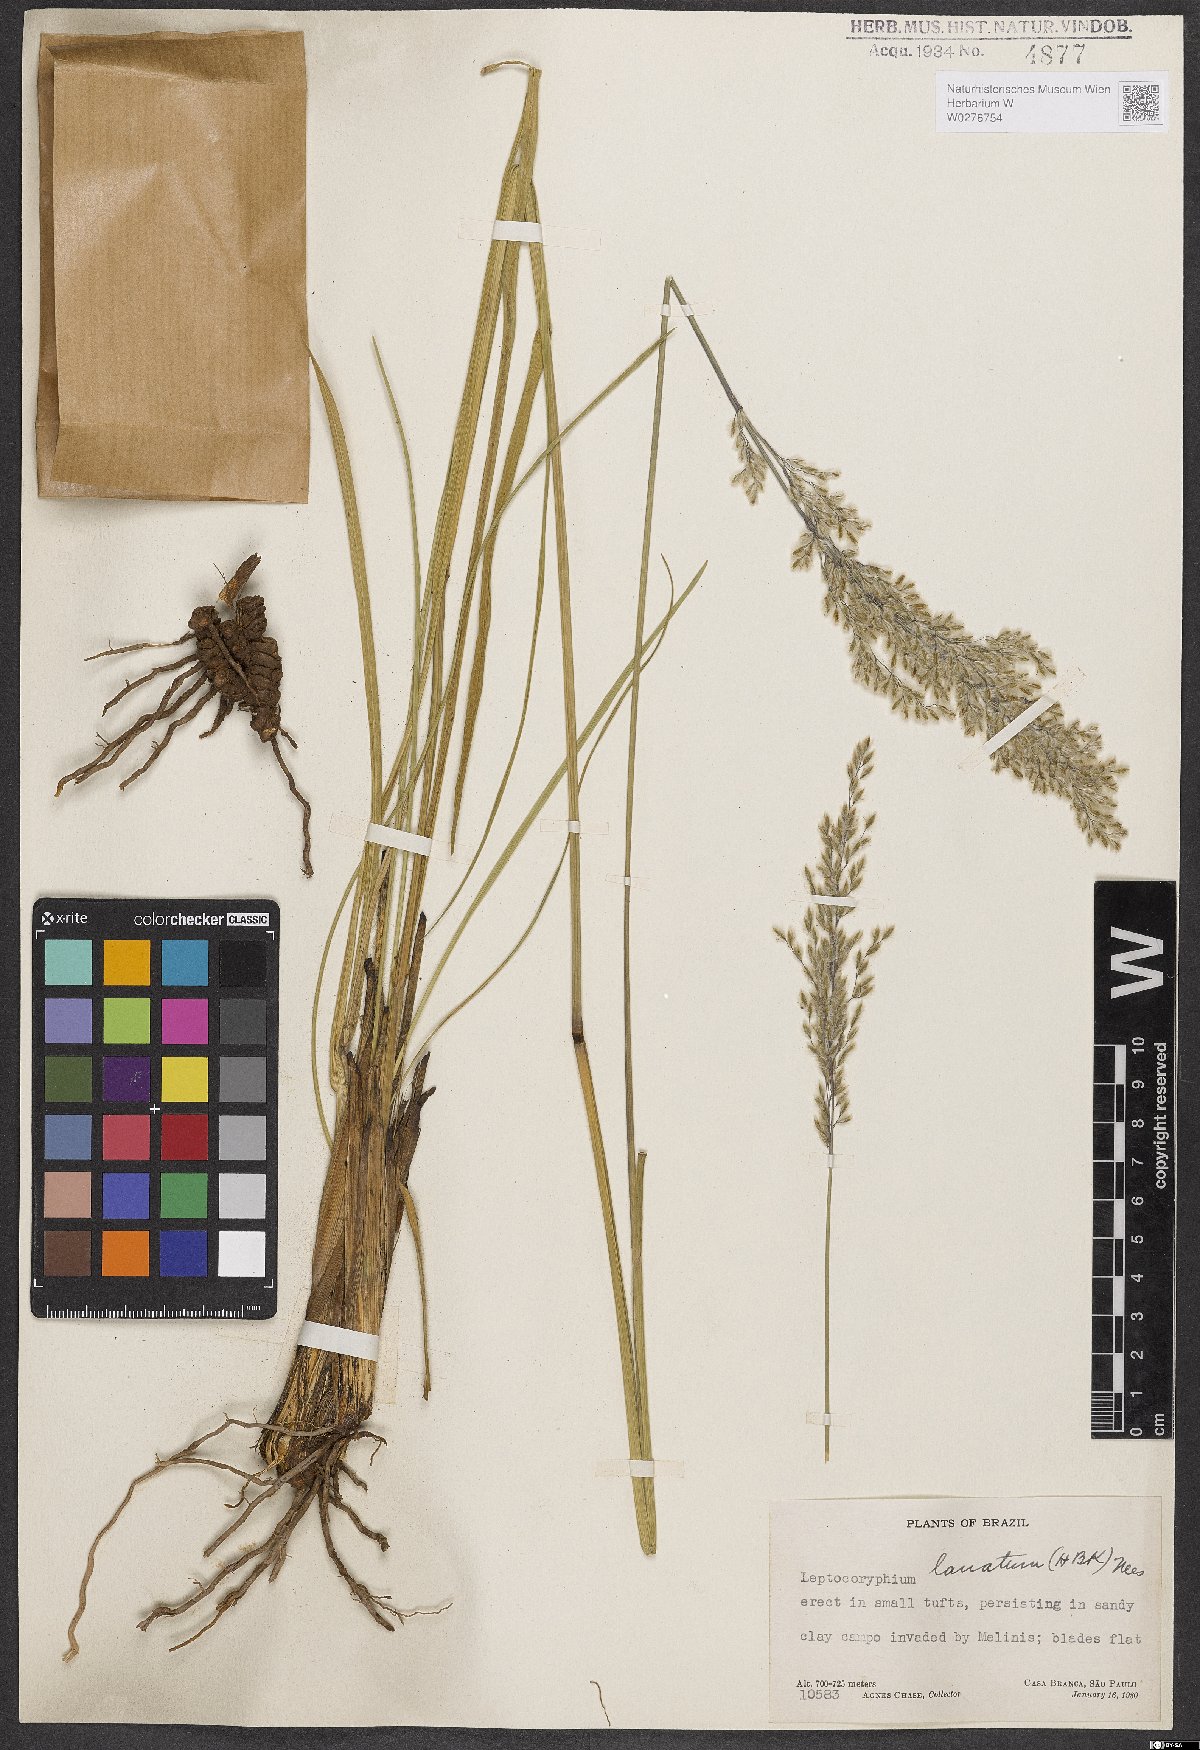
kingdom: Plantae
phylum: Tracheophyta
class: Liliopsida
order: Poales
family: Poaceae
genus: Anthaenantia
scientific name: Anthaenantia lanata
